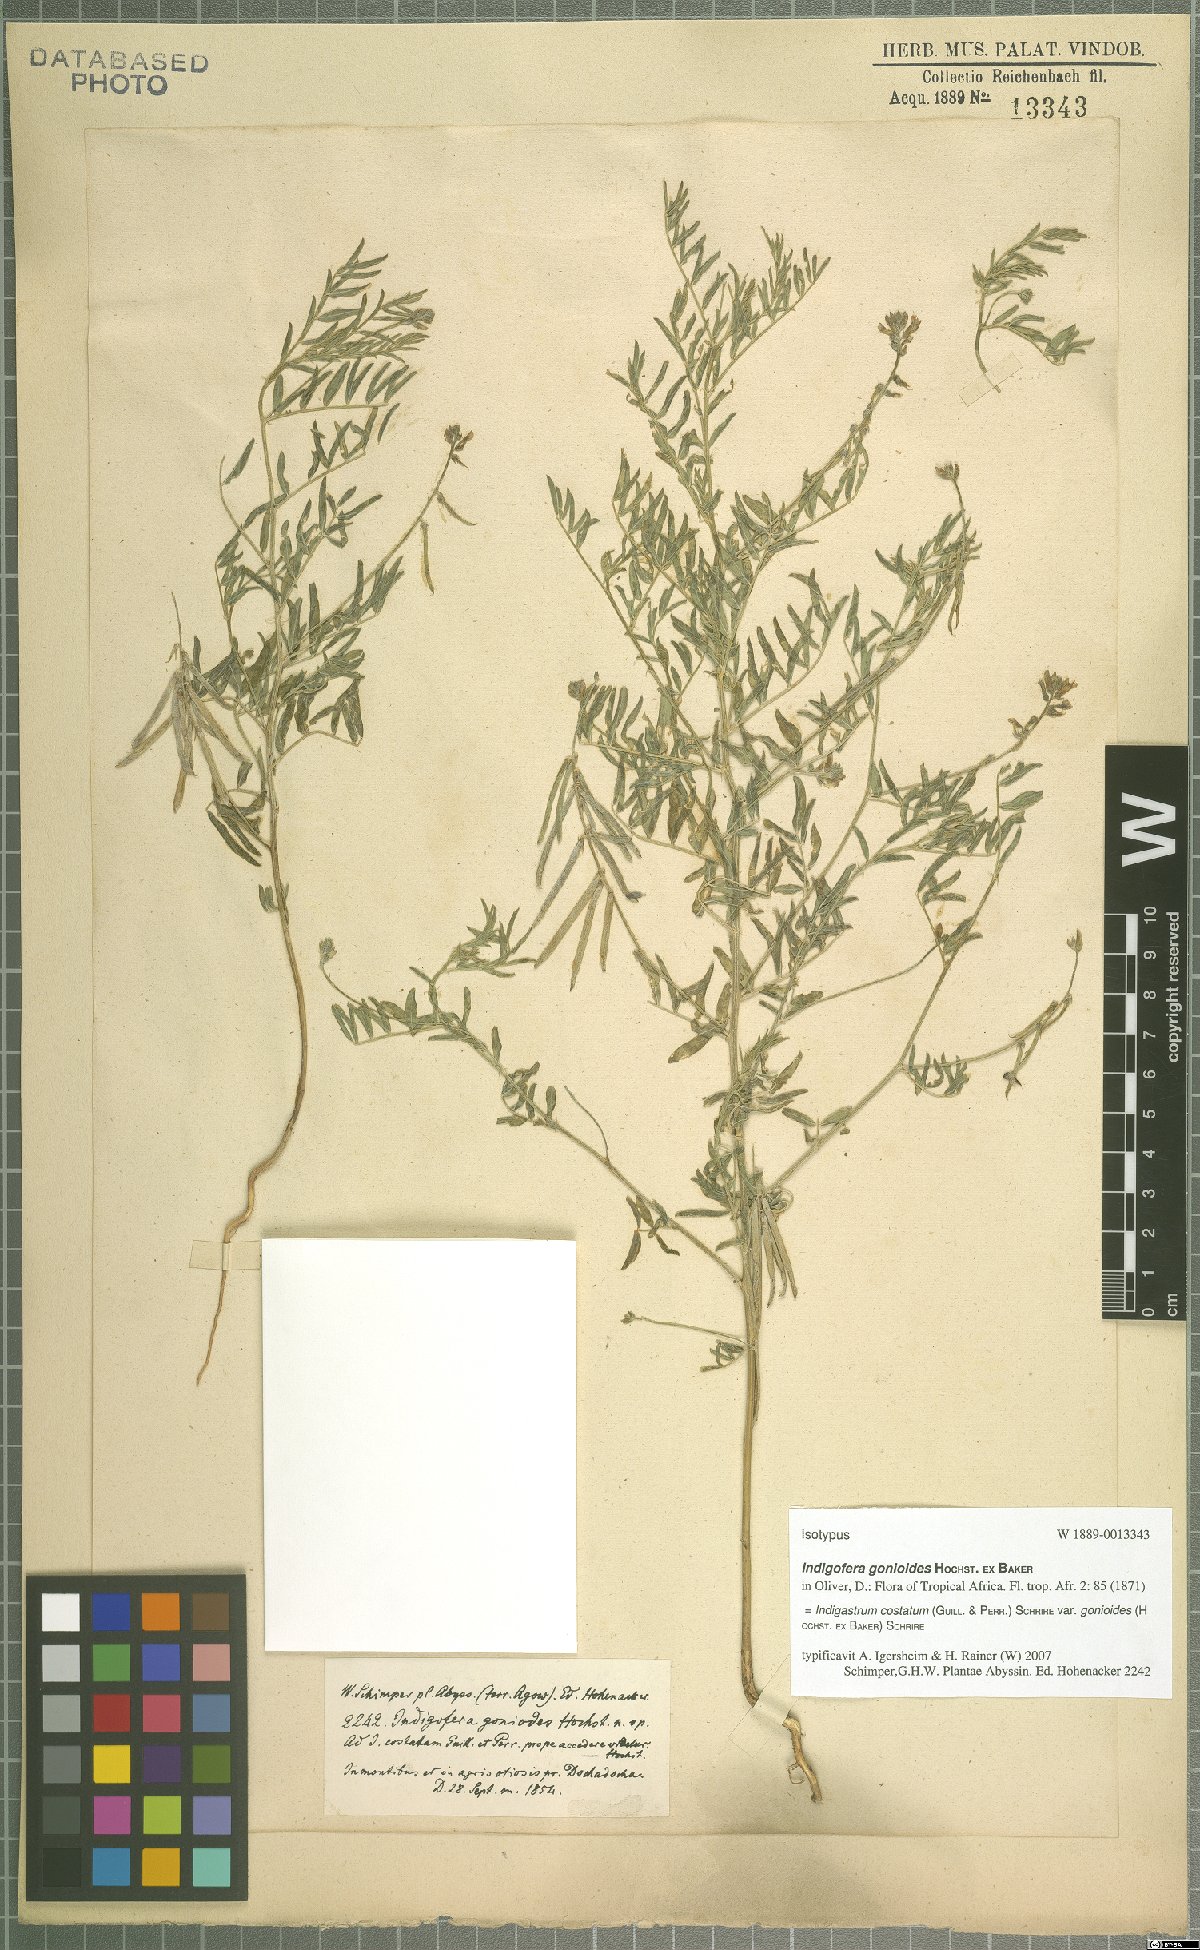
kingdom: Plantae
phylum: Tracheophyta
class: Magnoliopsida
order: Fabales
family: Fabaceae
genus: Indigastrum
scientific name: Indigastrum costatum
